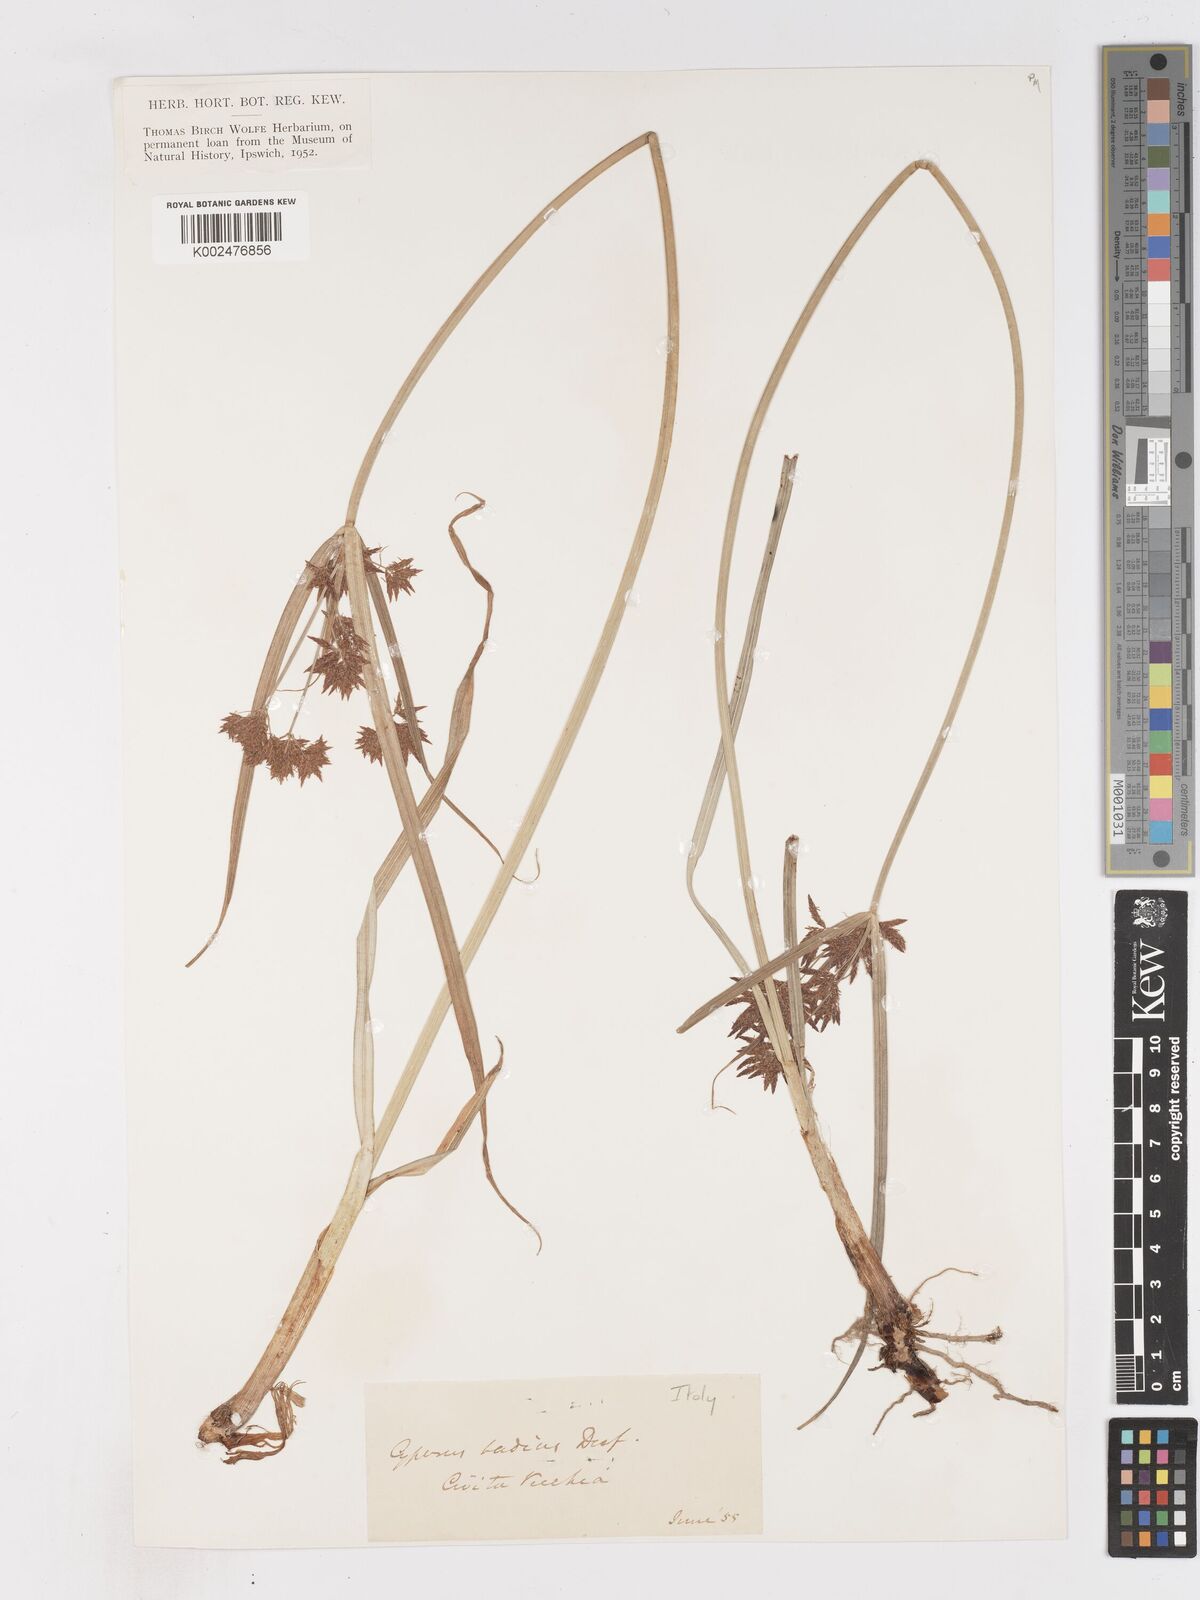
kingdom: Plantae
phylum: Tracheophyta
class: Liliopsida
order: Poales
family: Cyperaceae
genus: Cyperus
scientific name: Cyperus longus
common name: Galingale
